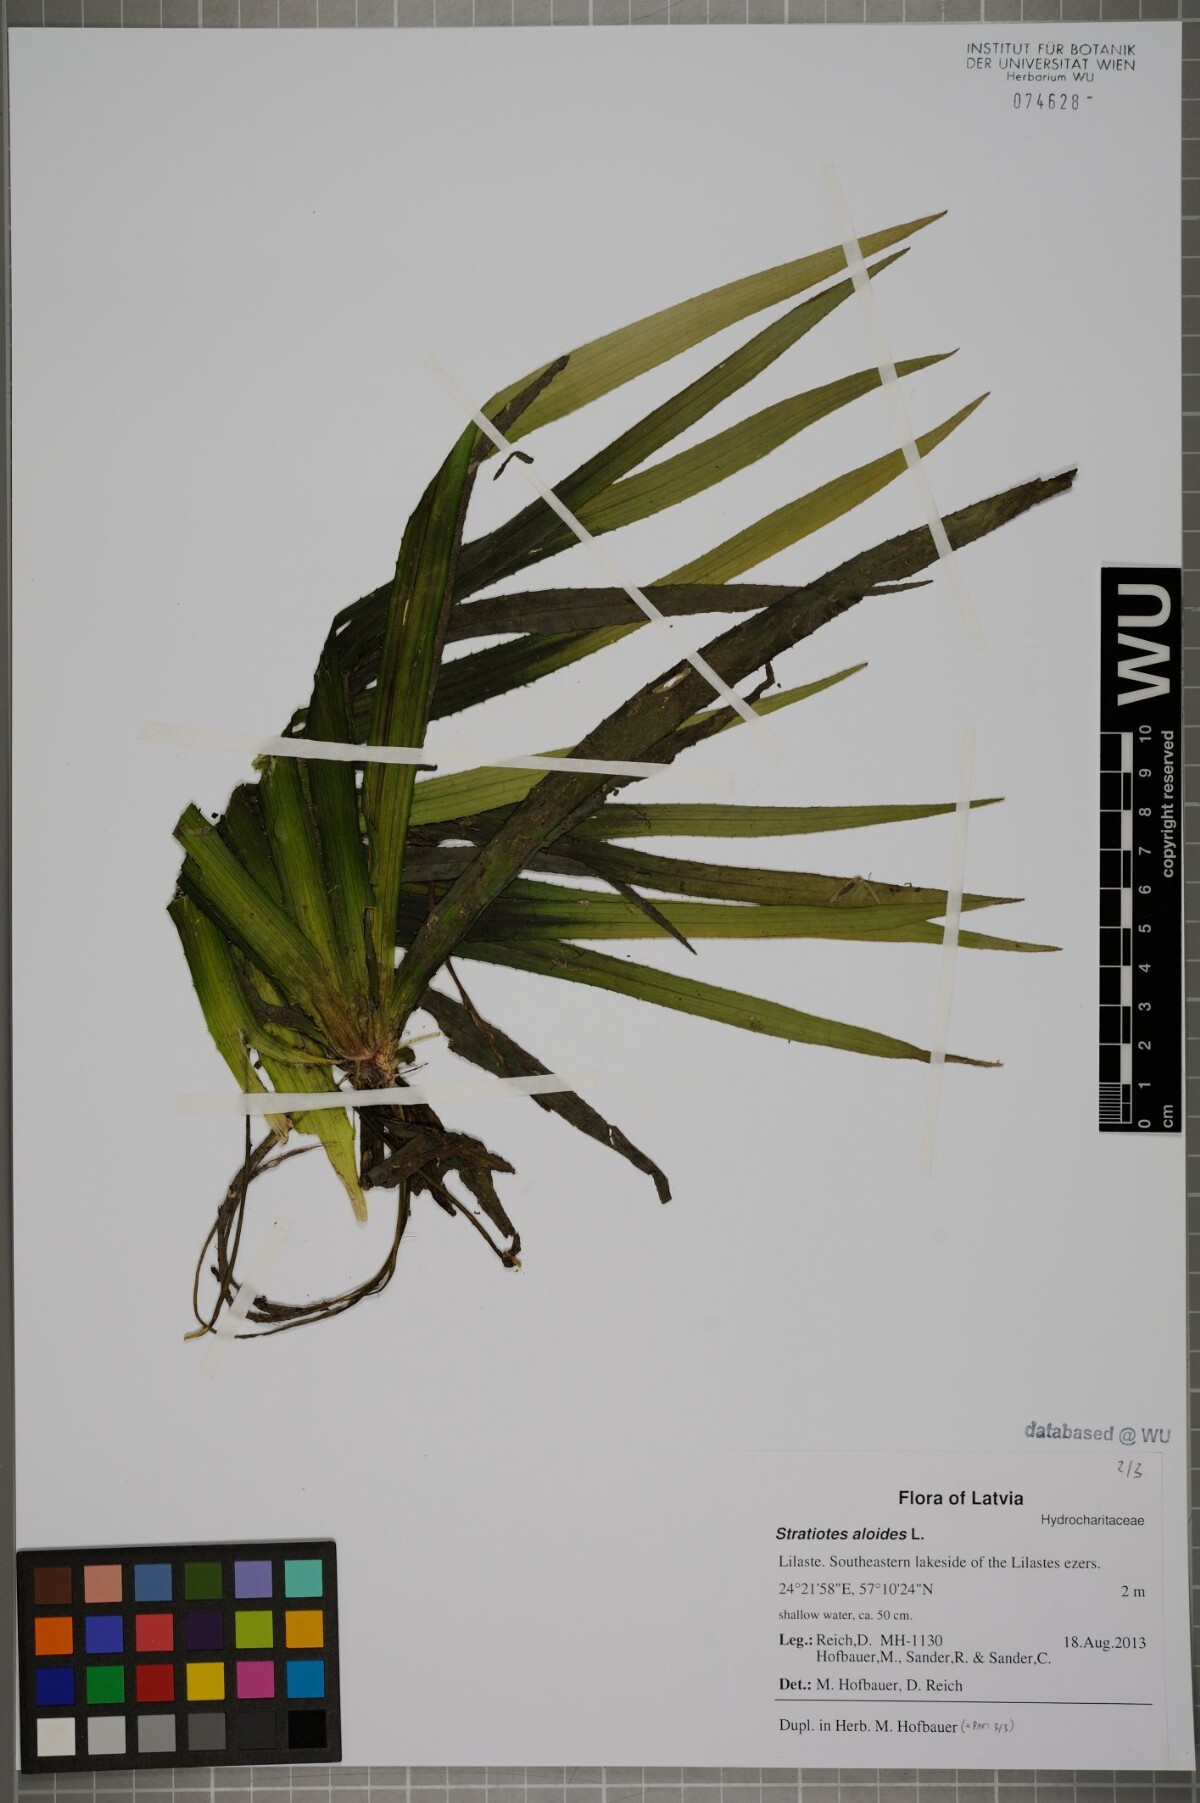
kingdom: Plantae
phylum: Tracheophyta
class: Liliopsida
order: Alismatales
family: Hydrocharitaceae
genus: Stratiotes
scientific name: Stratiotes aloides
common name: Water-soldier
